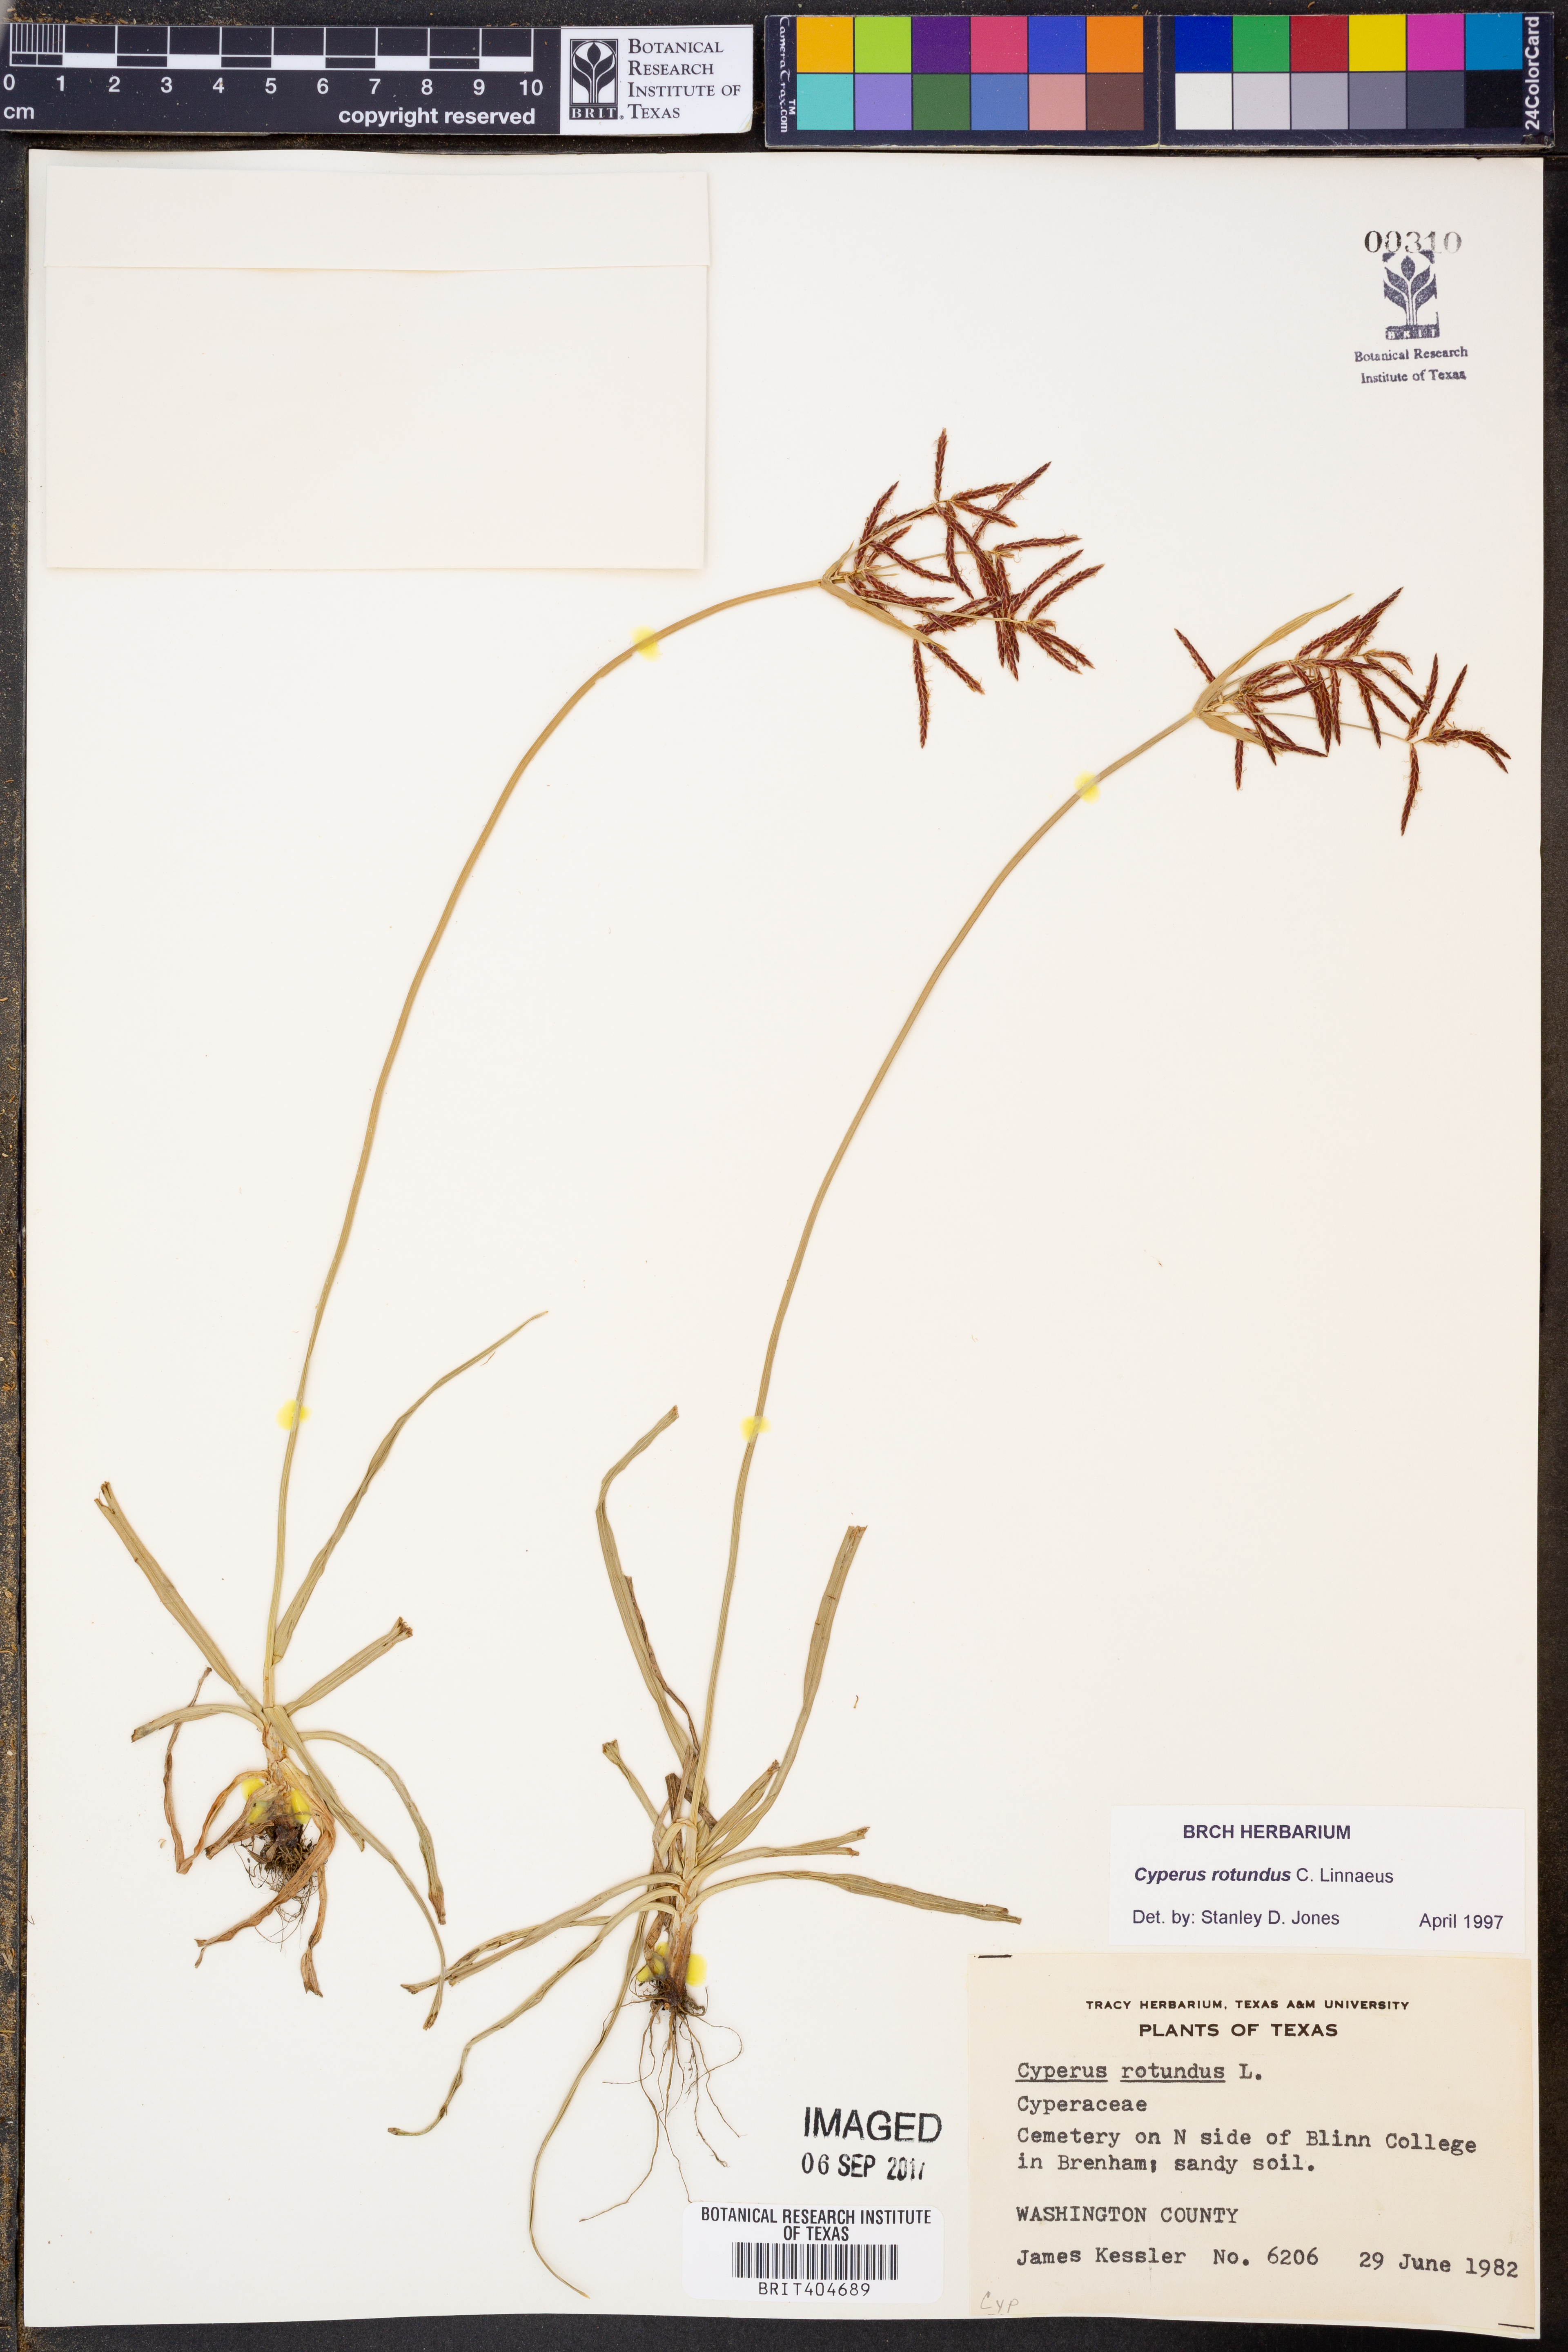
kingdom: Plantae
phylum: Tracheophyta
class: Liliopsida
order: Poales
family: Cyperaceae
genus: Cyperus
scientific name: Cyperus rotundus
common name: Nutgrass
